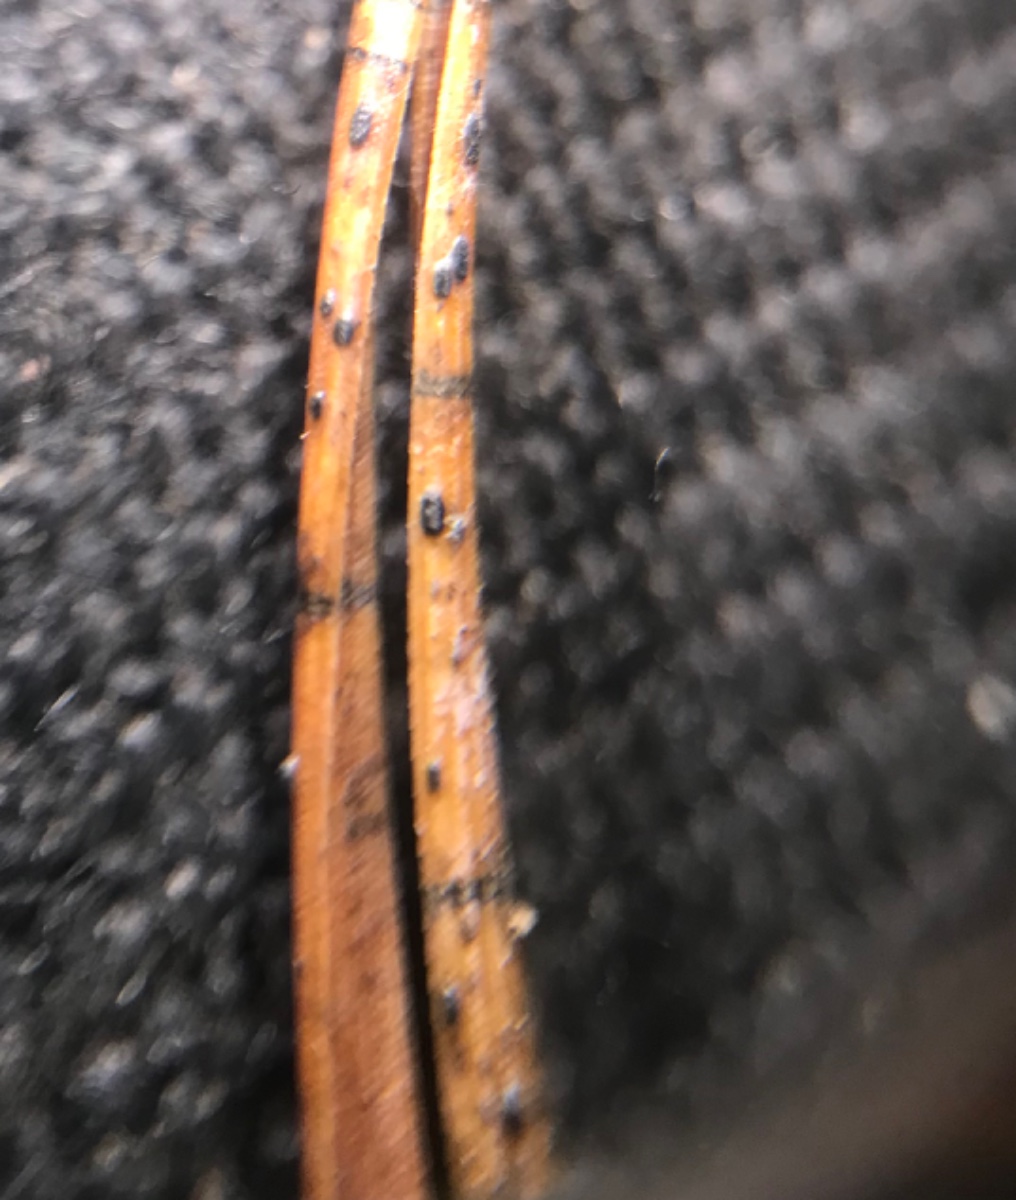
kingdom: Fungi
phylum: Ascomycota
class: Leotiomycetes
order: Rhytismatales
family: Rhytismataceae
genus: Lophodermium
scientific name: Lophodermium
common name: fureplet
